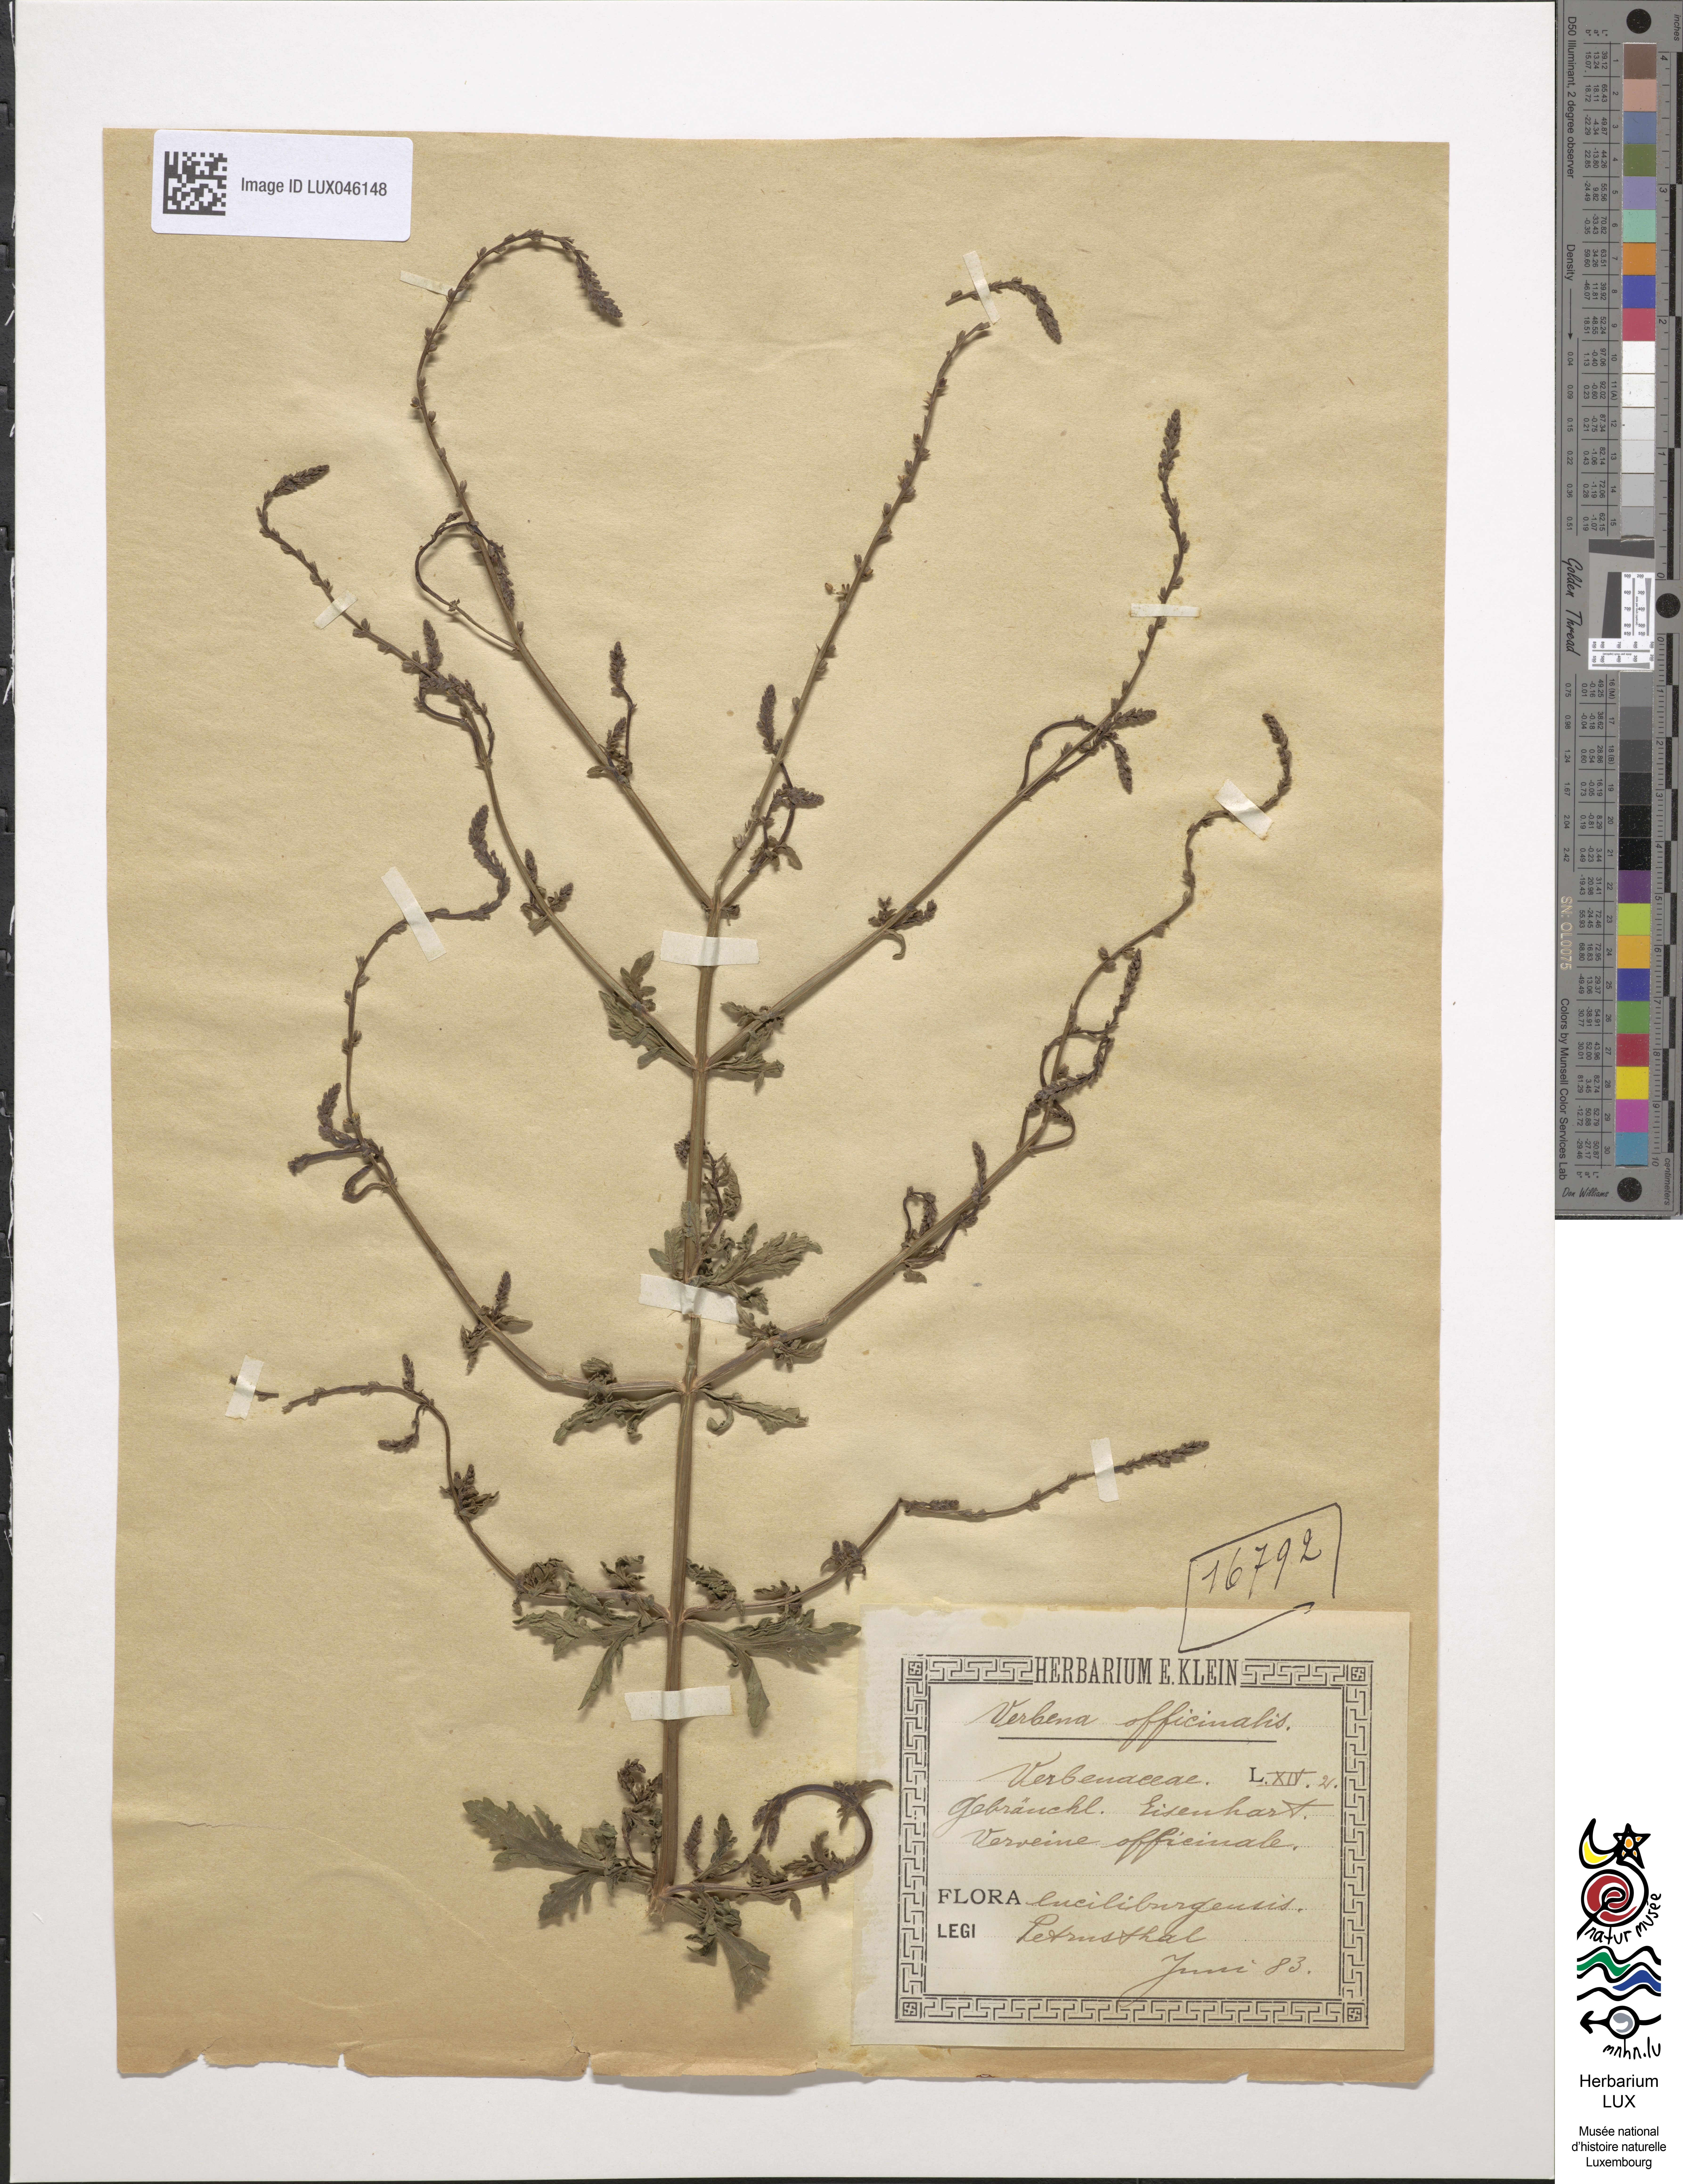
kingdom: Plantae
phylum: Tracheophyta
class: Magnoliopsida
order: Lamiales
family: Verbenaceae
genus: Verbena
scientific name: Verbena officinalis
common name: Vervain
